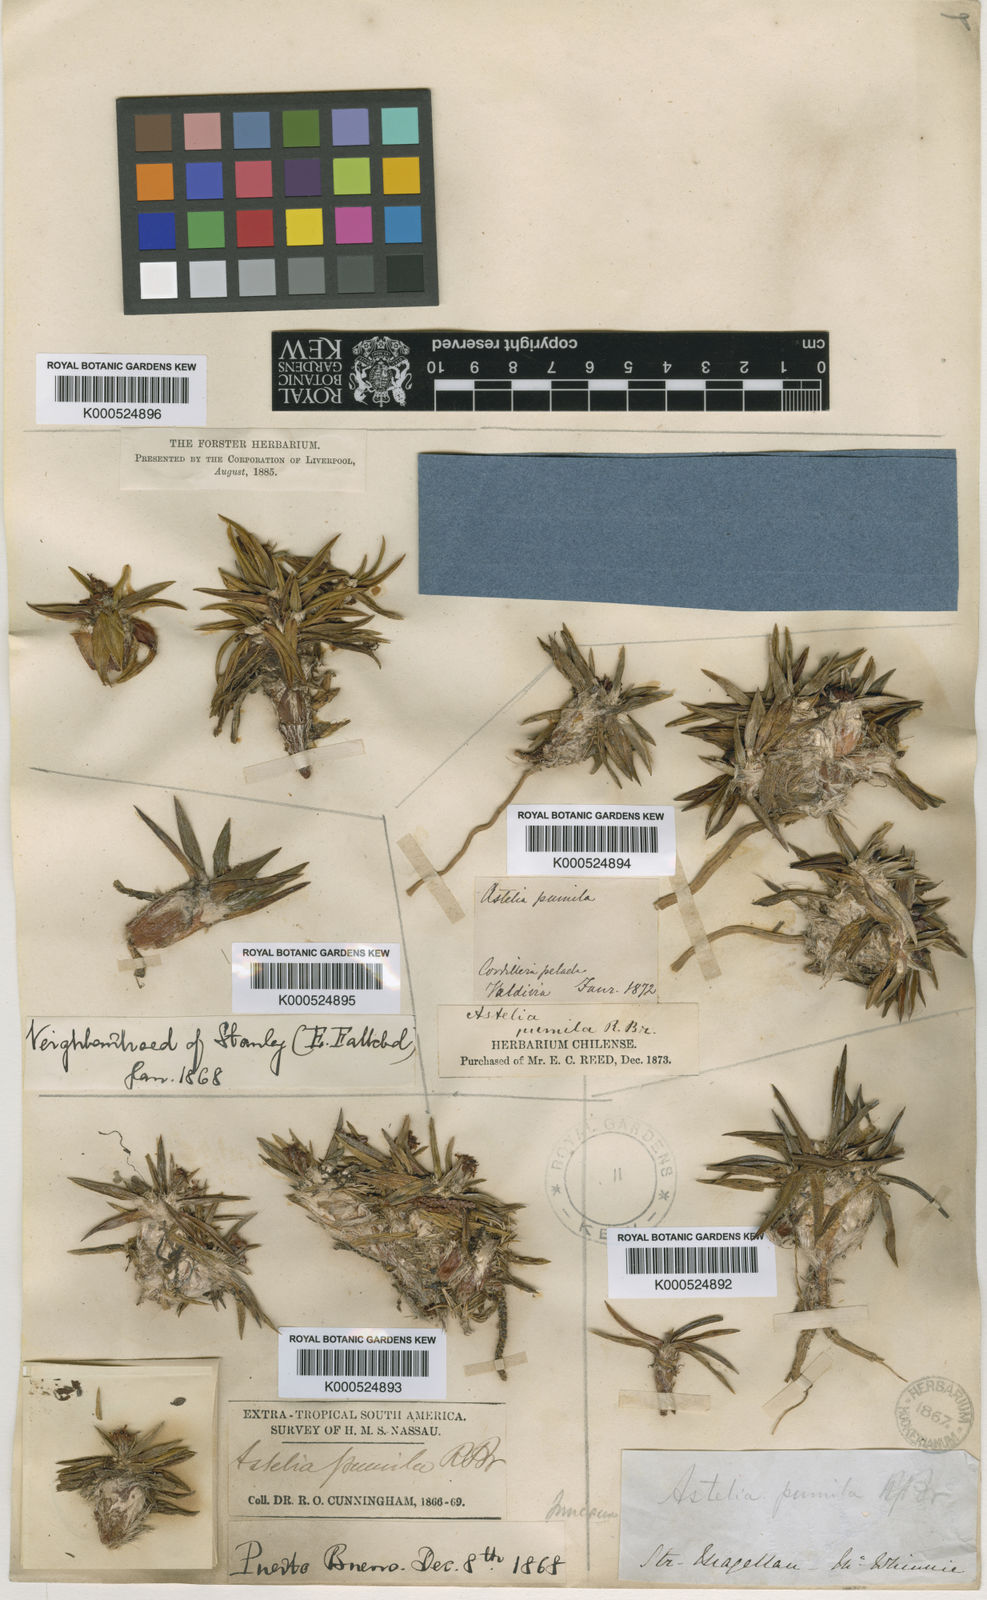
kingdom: Plantae
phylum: Tracheophyta
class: Liliopsida
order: Asparagales
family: Asteliaceae
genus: Astelia
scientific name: Astelia pumila
